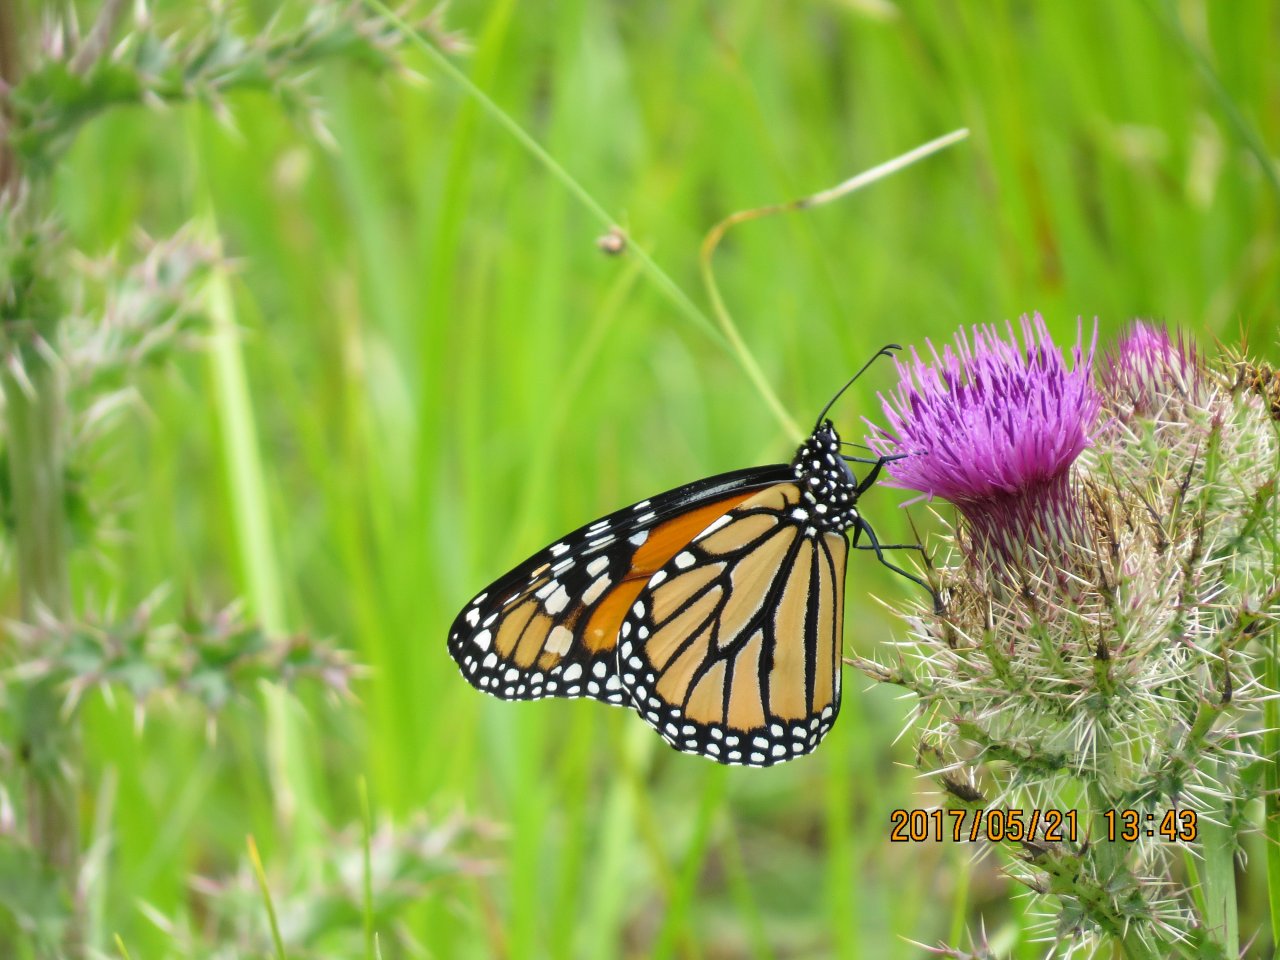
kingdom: Animalia
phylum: Arthropoda
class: Insecta
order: Lepidoptera
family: Nymphalidae
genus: Danaus
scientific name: Danaus plexippus
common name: Monarch
